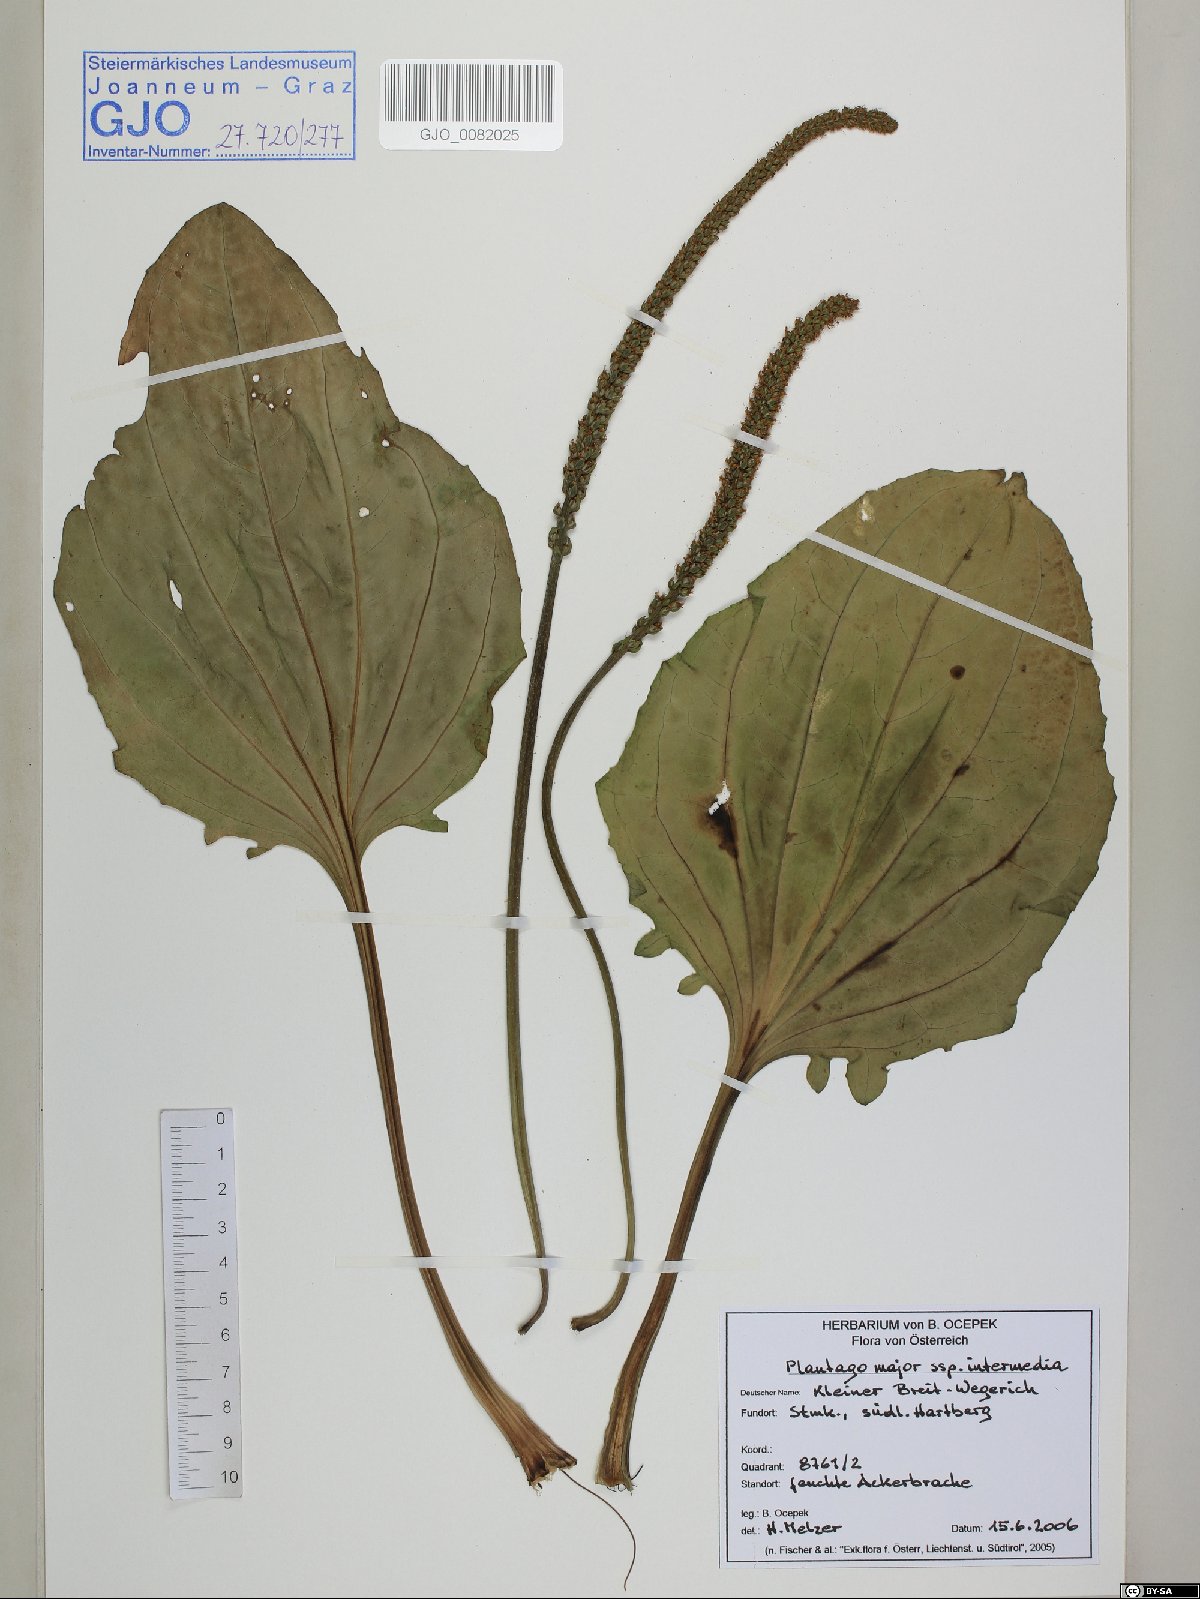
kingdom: Plantae
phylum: Tracheophyta
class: Magnoliopsida
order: Lamiales
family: Plantaginaceae
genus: Plantago
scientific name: Plantago uliginosa
